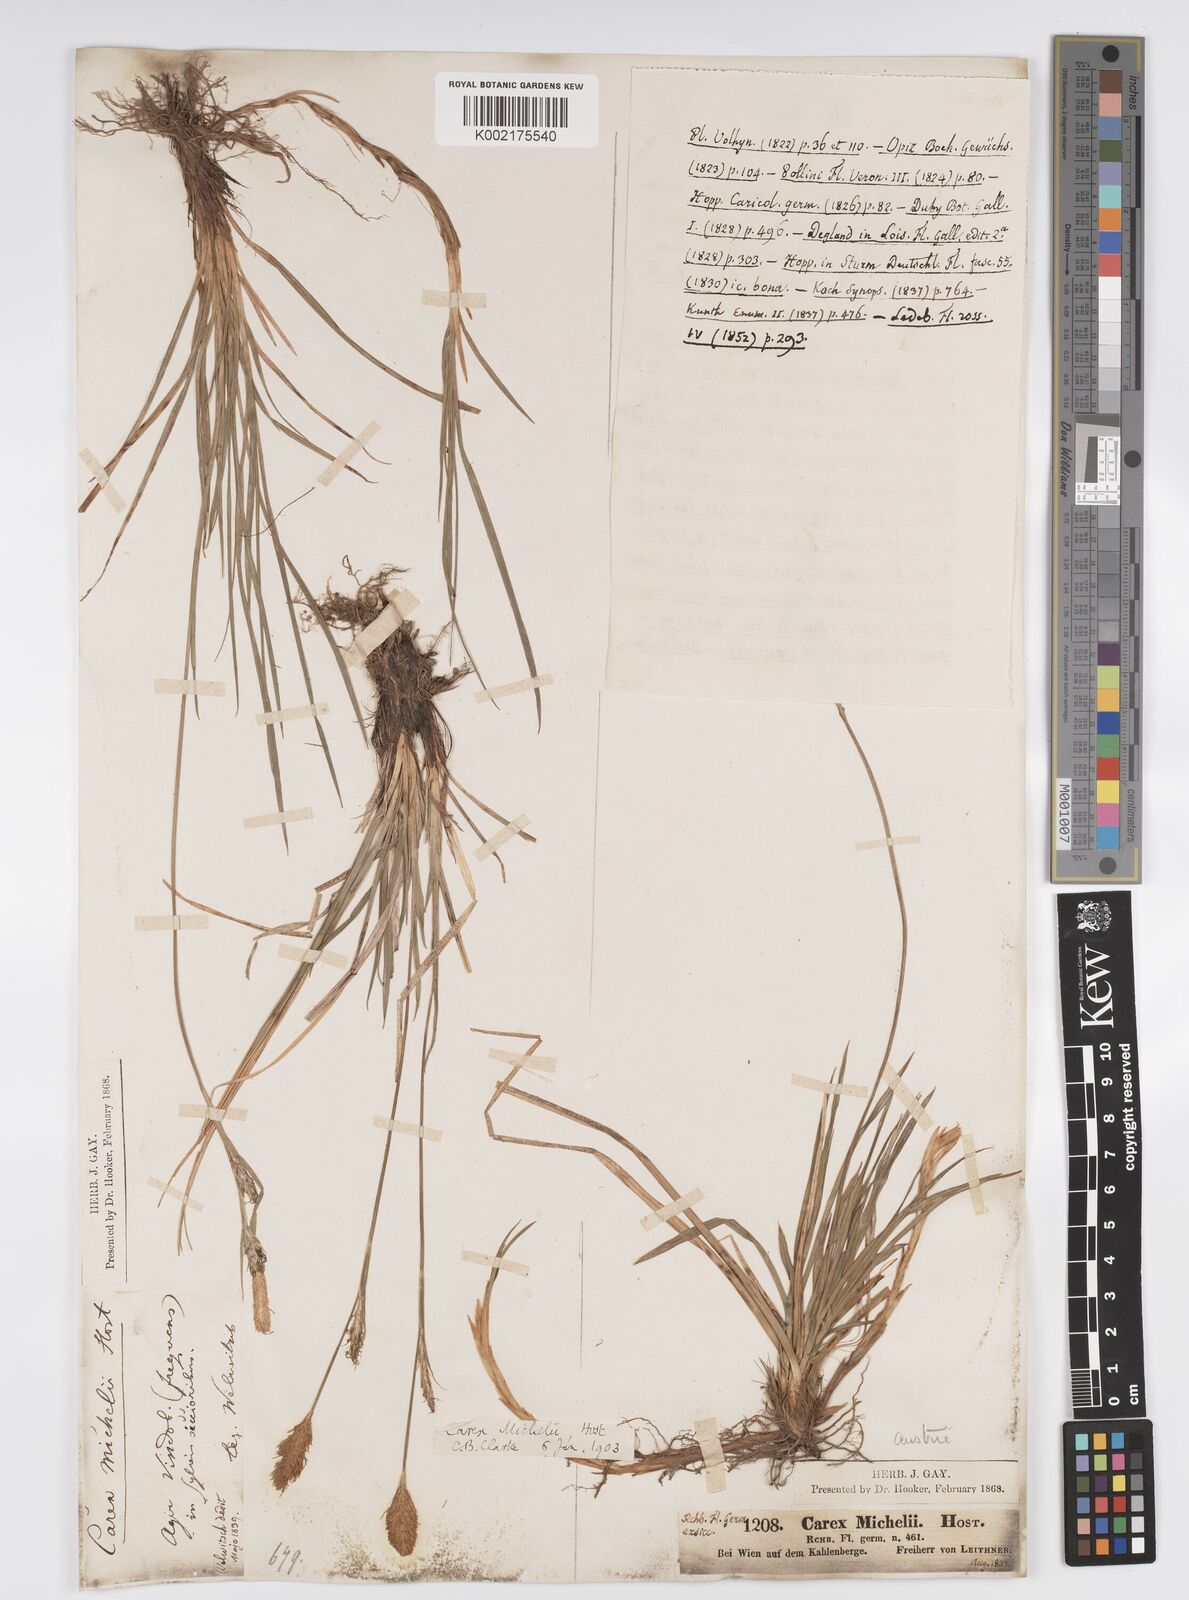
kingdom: Plantae
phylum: Tracheophyta
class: Liliopsida
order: Poales
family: Cyperaceae
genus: Carex
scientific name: Carex michelii
